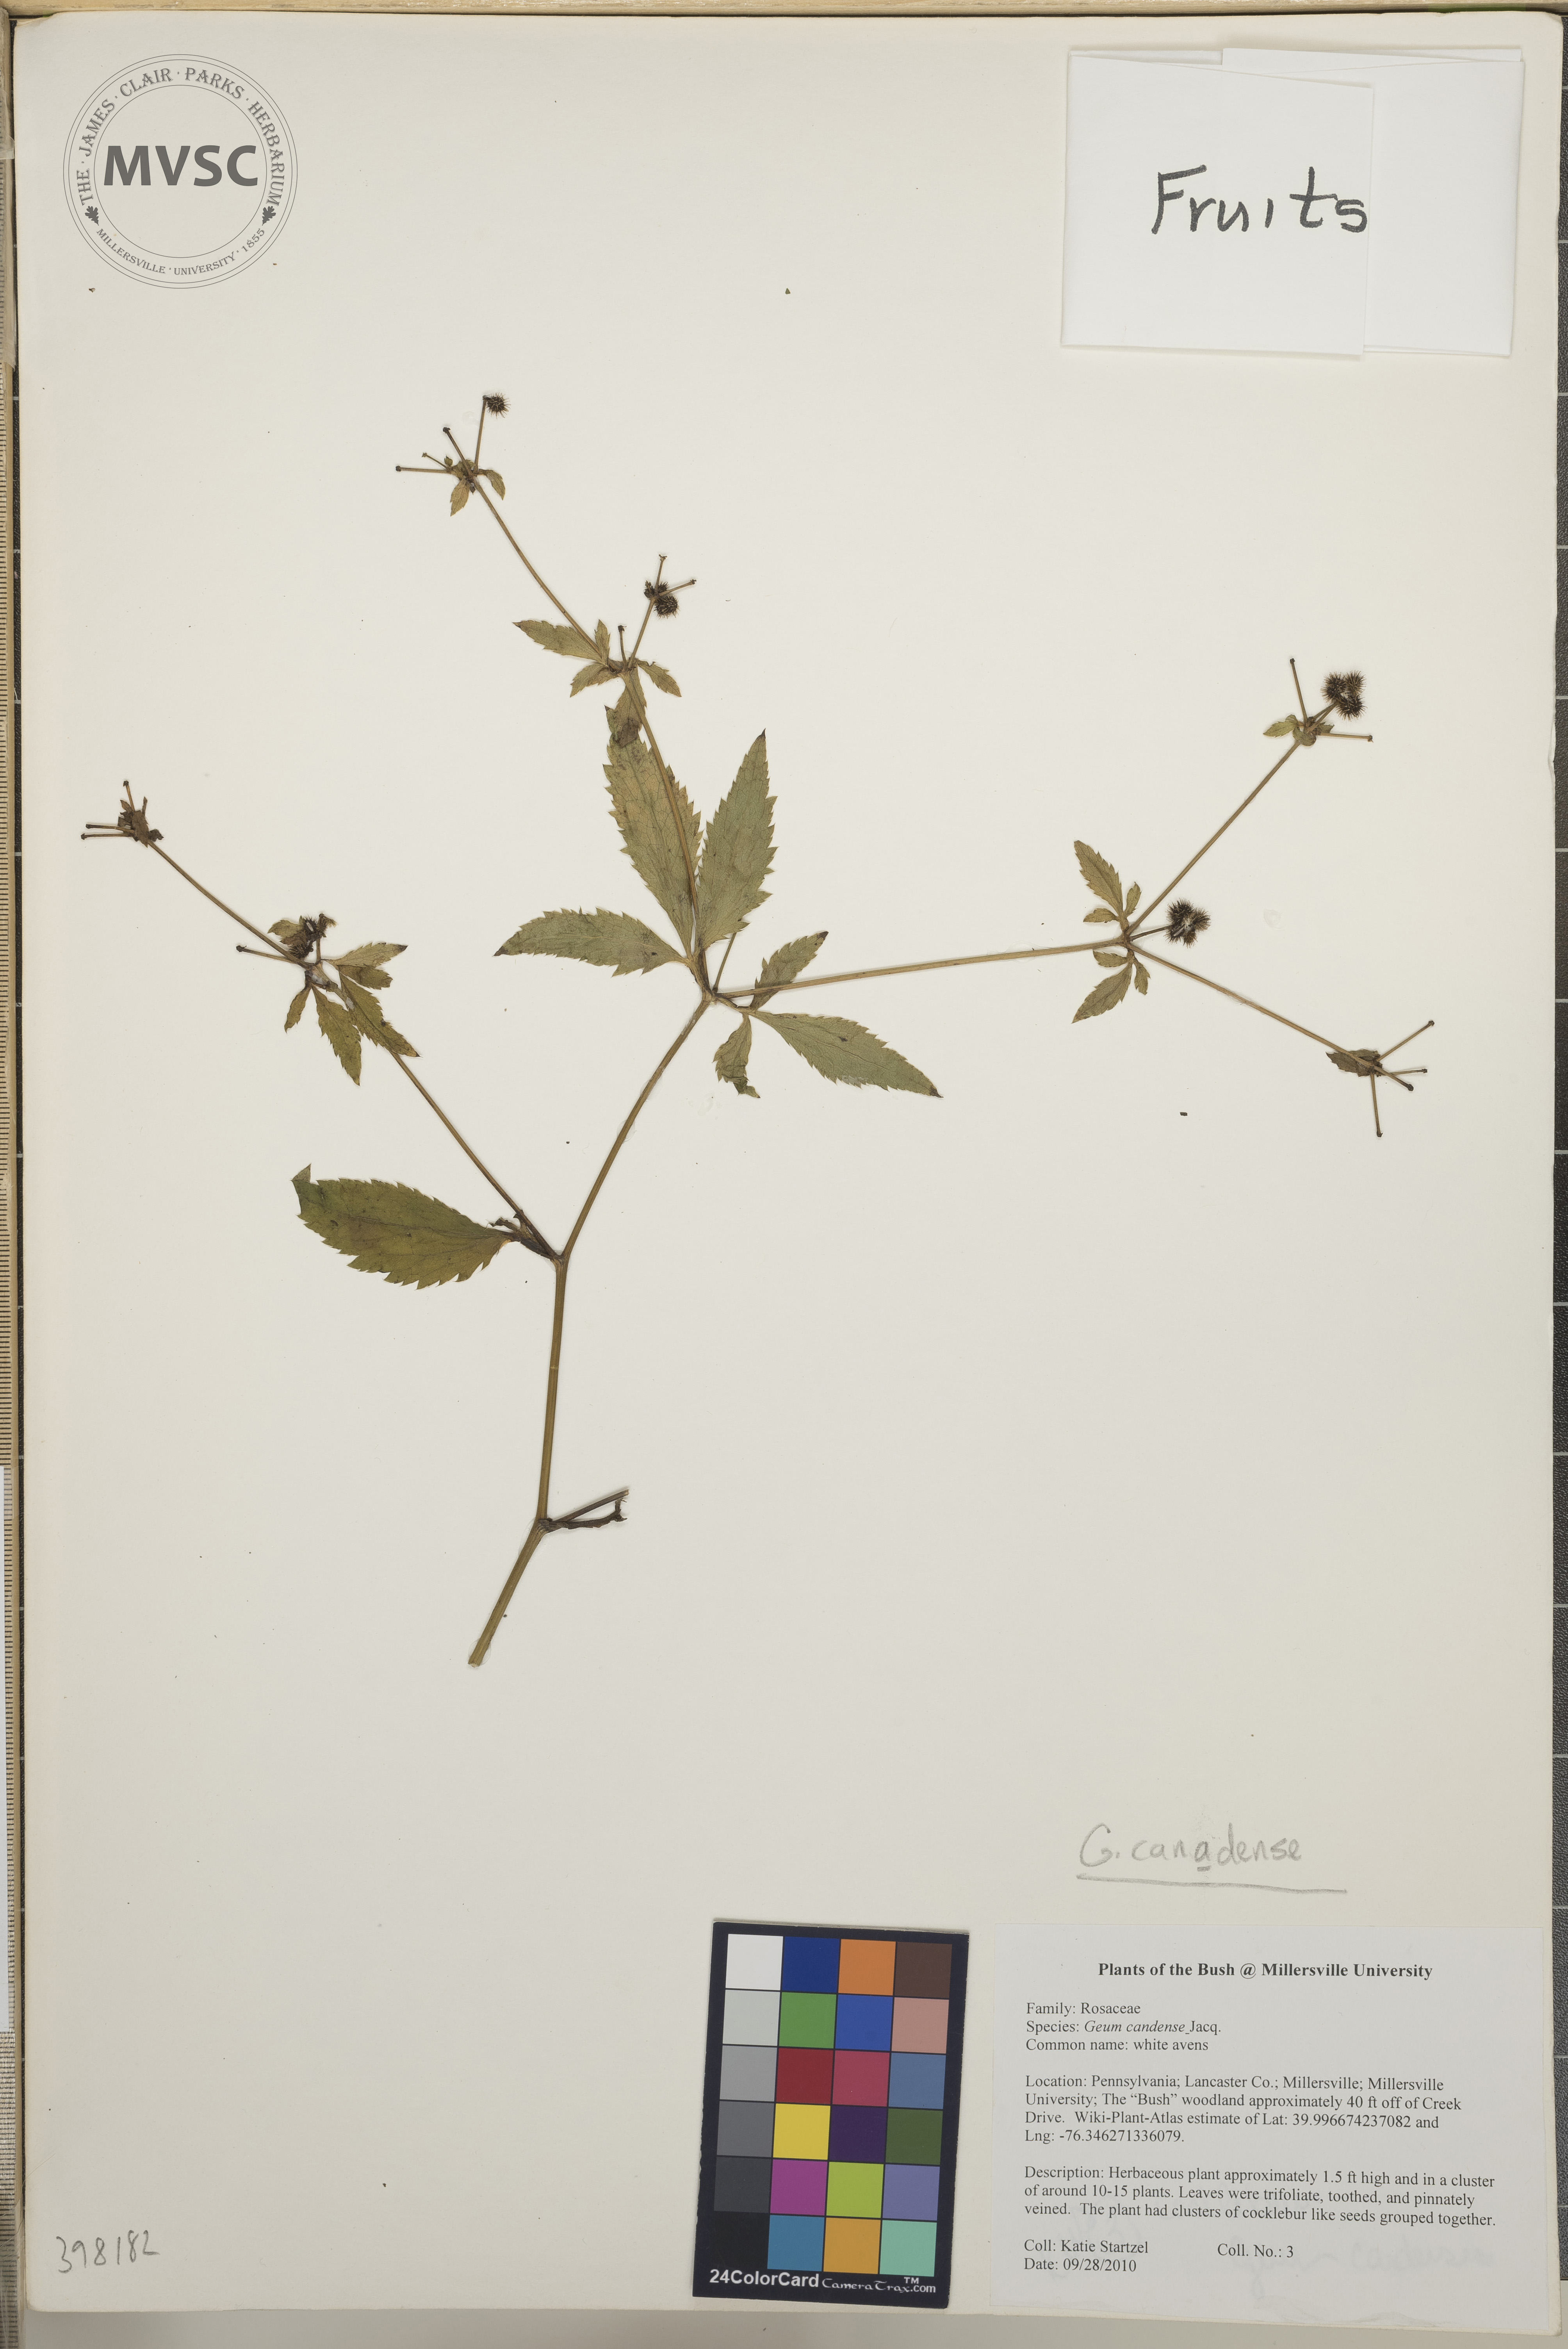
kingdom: Plantae
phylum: Tracheophyta
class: Magnoliopsida
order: Apiales
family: Apiaceae
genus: Sanicula
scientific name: Sanicula canadensis
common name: Canada sanicle
